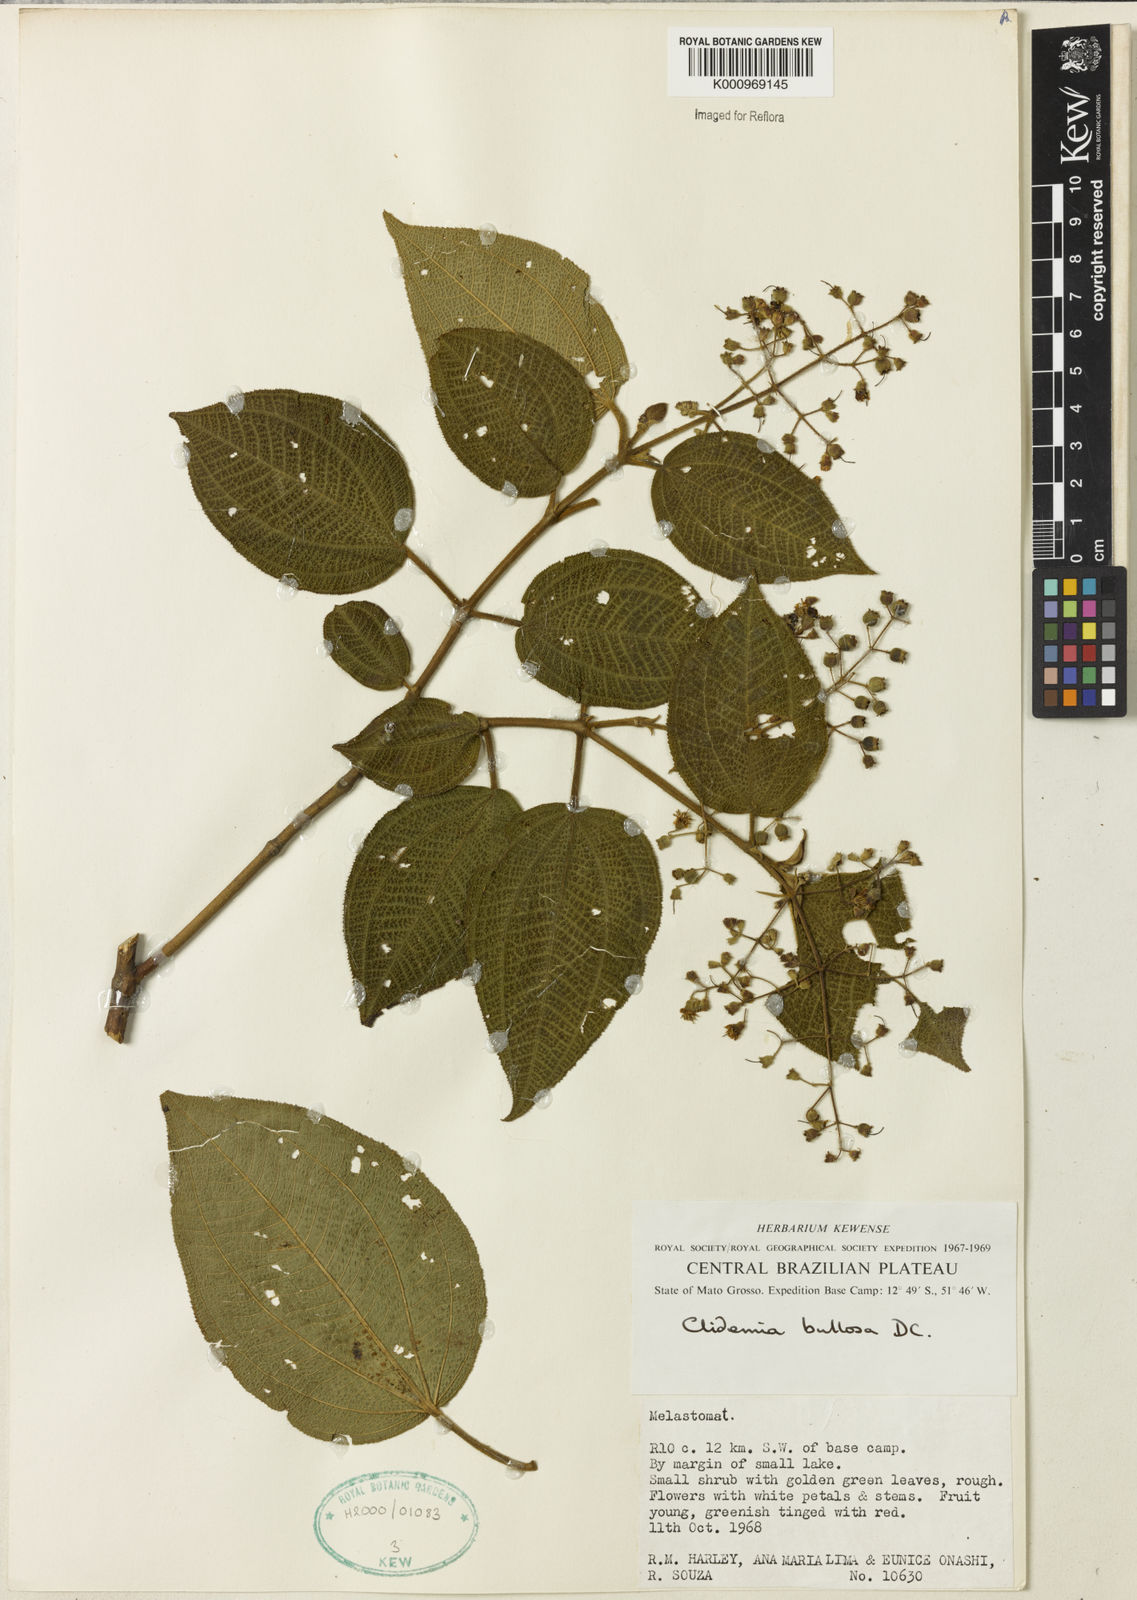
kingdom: Plantae
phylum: Tracheophyta
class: Magnoliopsida
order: Myrtales
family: Melastomataceae
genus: Miconia
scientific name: Miconia biserrata
